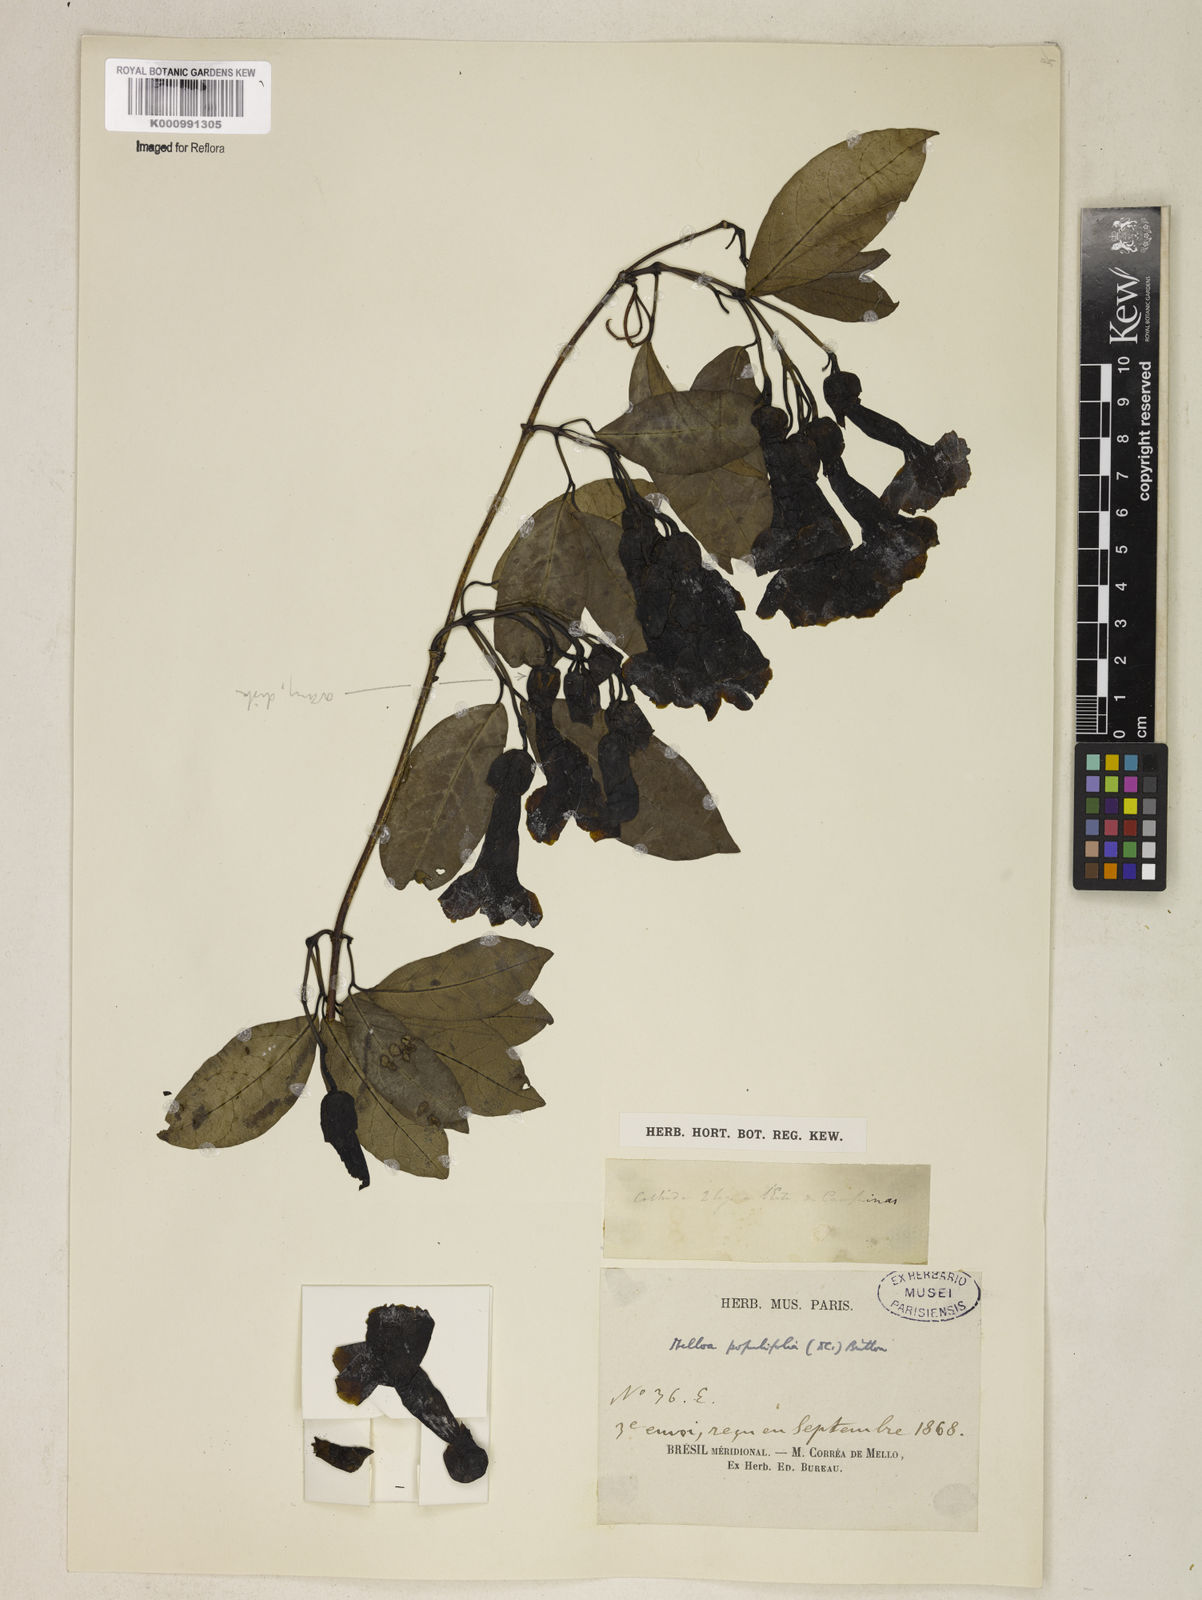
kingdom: Plantae
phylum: Tracheophyta
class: Magnoliopsida
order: Lamiales
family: Bignoniaceae
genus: Dolichandra
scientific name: Dolichandra quadrivalvis
